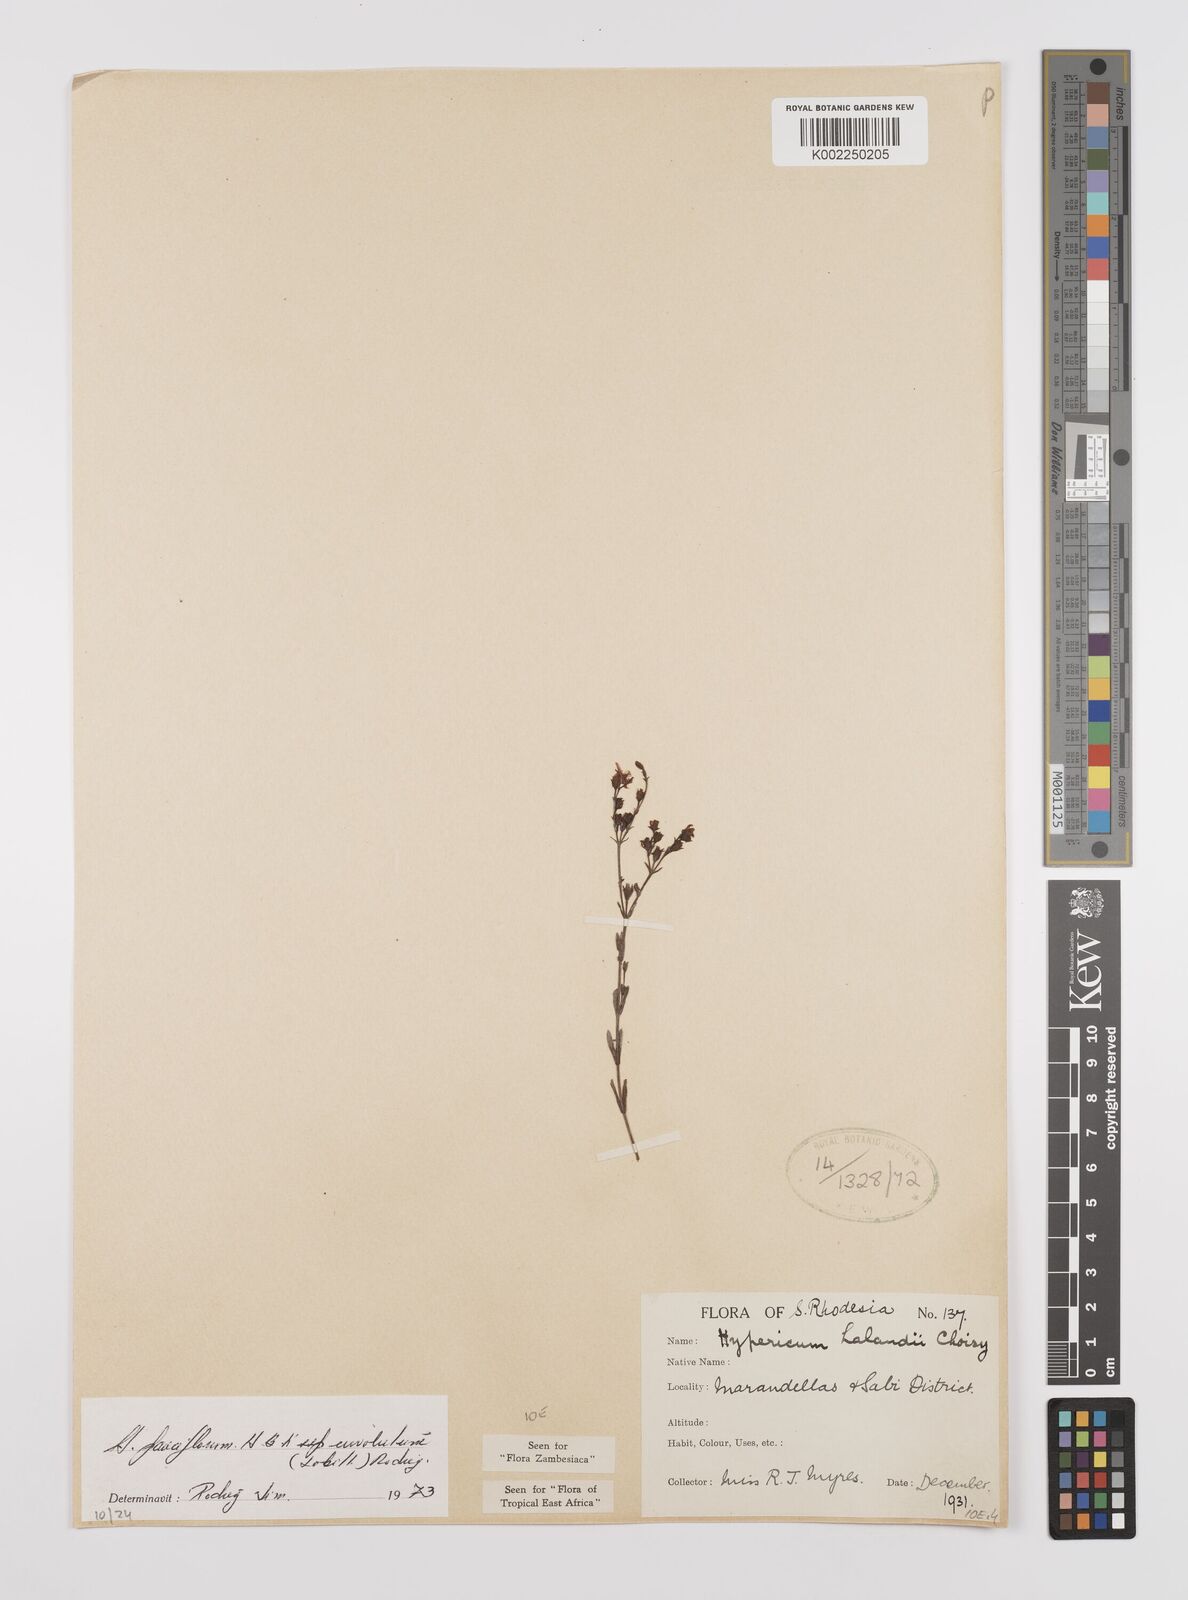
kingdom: Plantae
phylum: Tracheophyta
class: Magnoliopsida
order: Malpighiales
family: Hypericaceae
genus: Hypericum
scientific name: Hypericum lalandii
